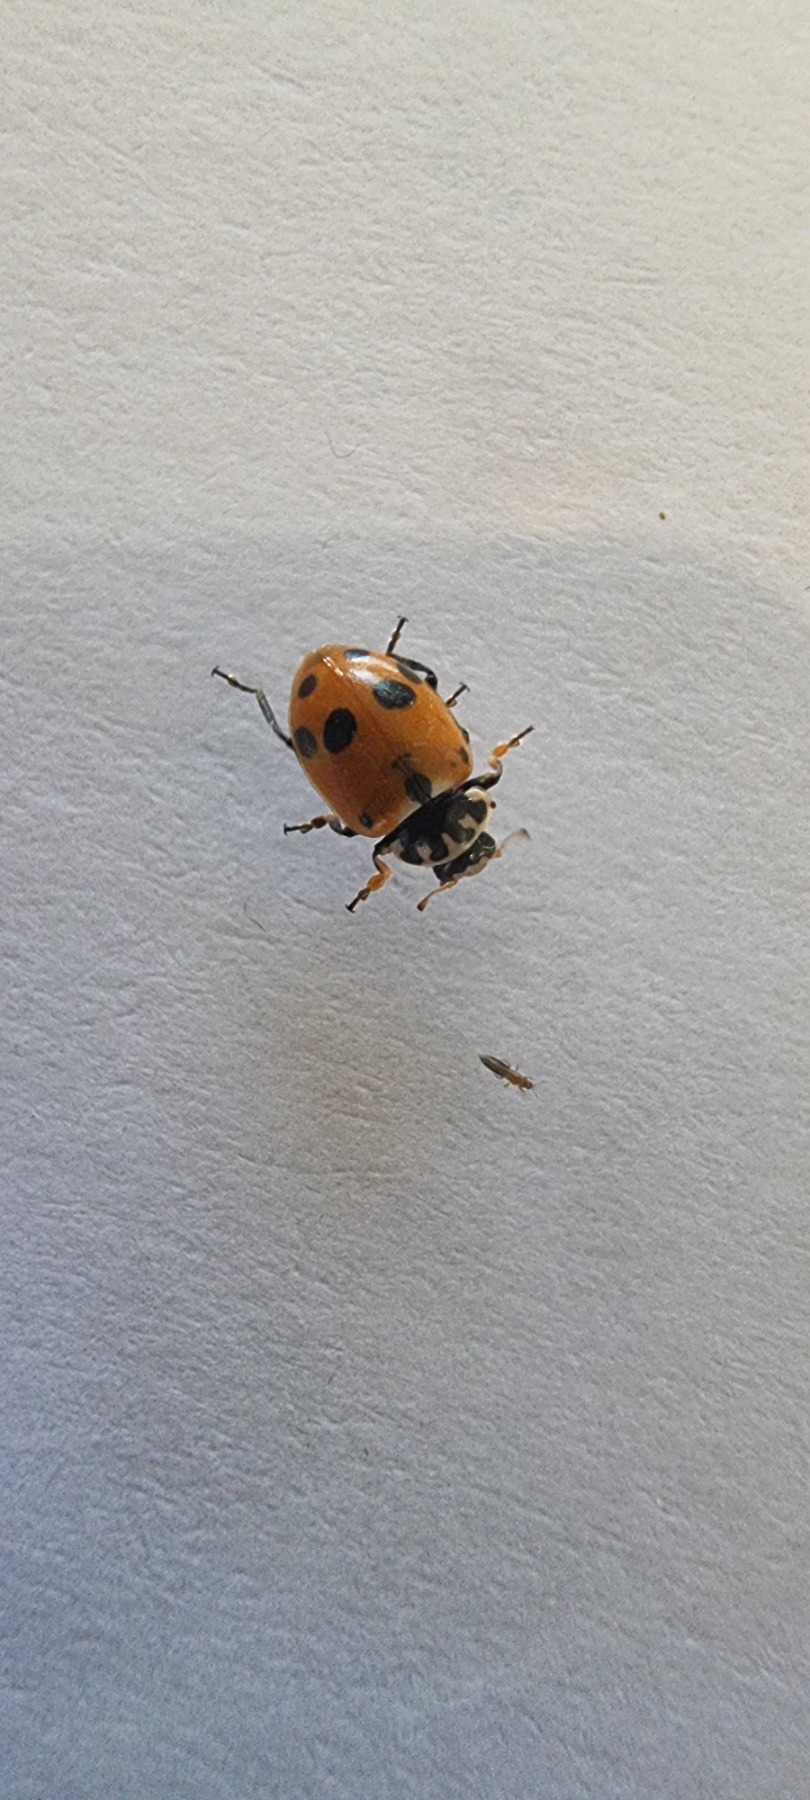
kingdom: Animalia
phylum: Arthropoda
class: Insecta
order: Coleoptera
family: Coccinellidae
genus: Hippodamia
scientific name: Hippodamia variegata
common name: Adonis' mariehøne
